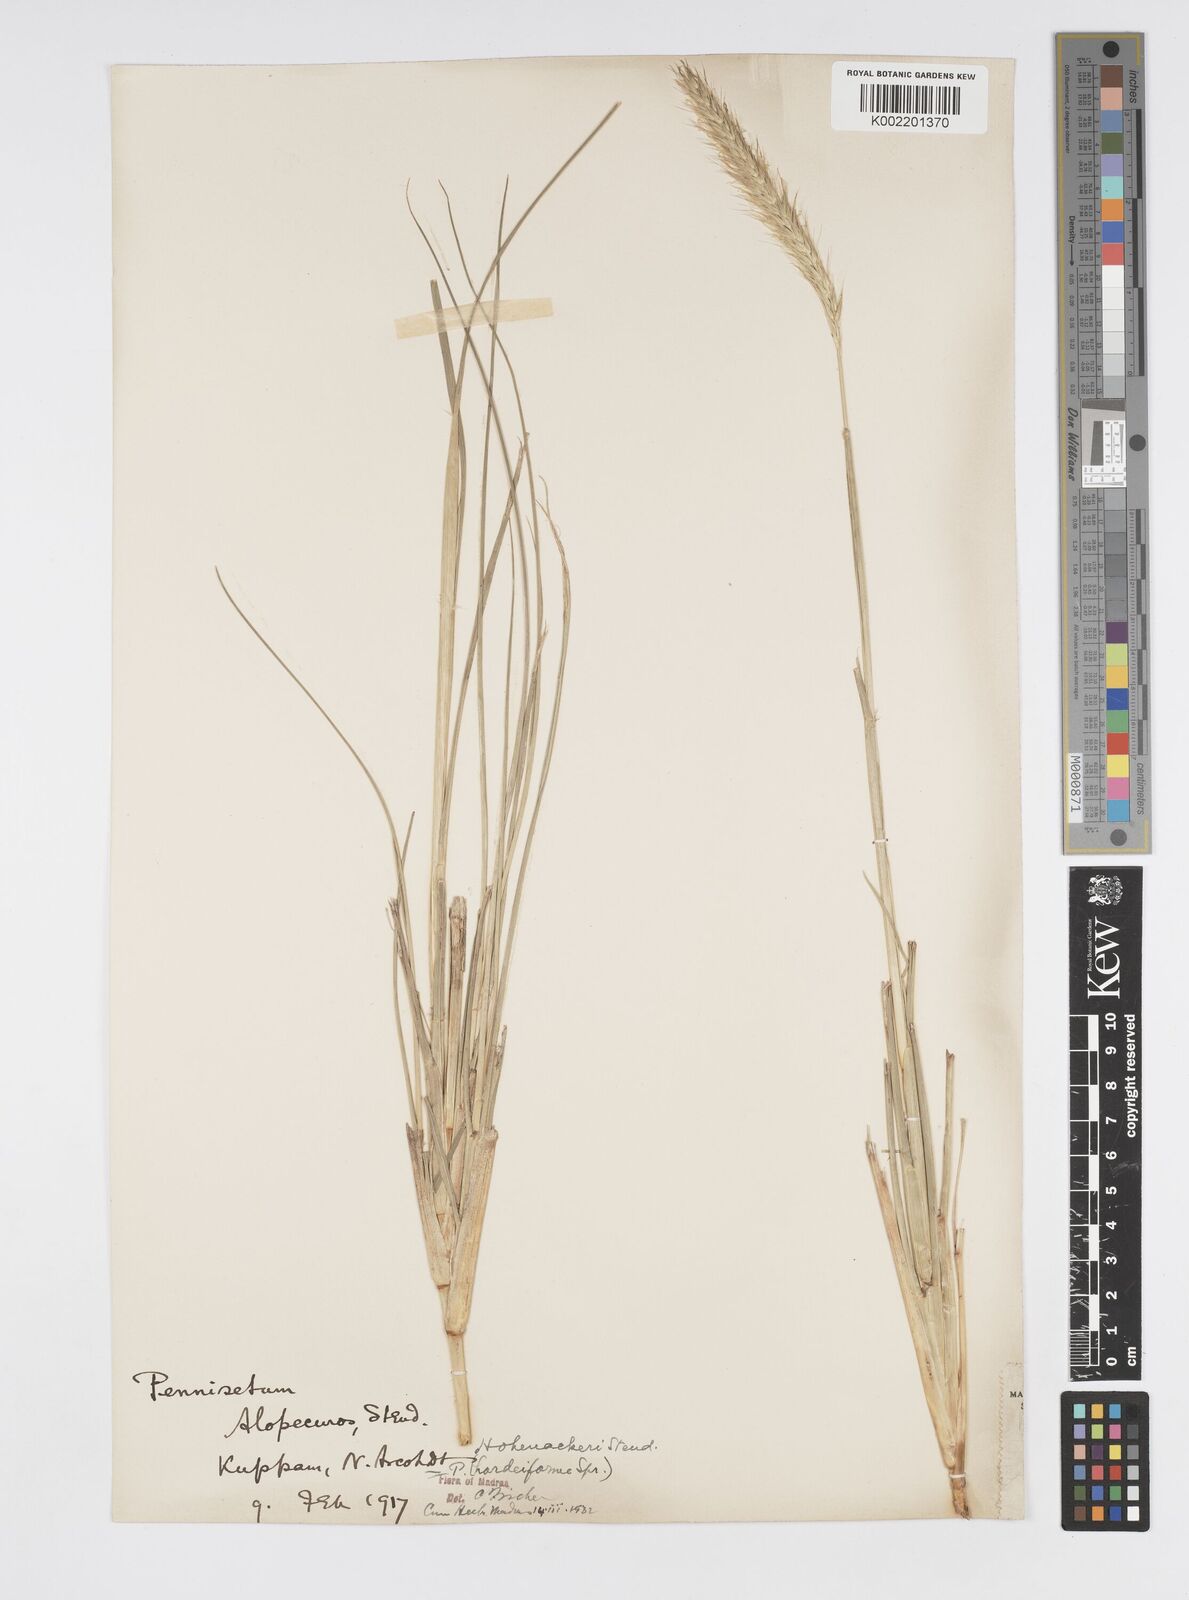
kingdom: Plantae
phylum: Tracheophyta
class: Liliopsida
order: Poales
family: Poaceae
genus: Cenchrus
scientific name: Cenchrus hohenackeri
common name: Moya grass
